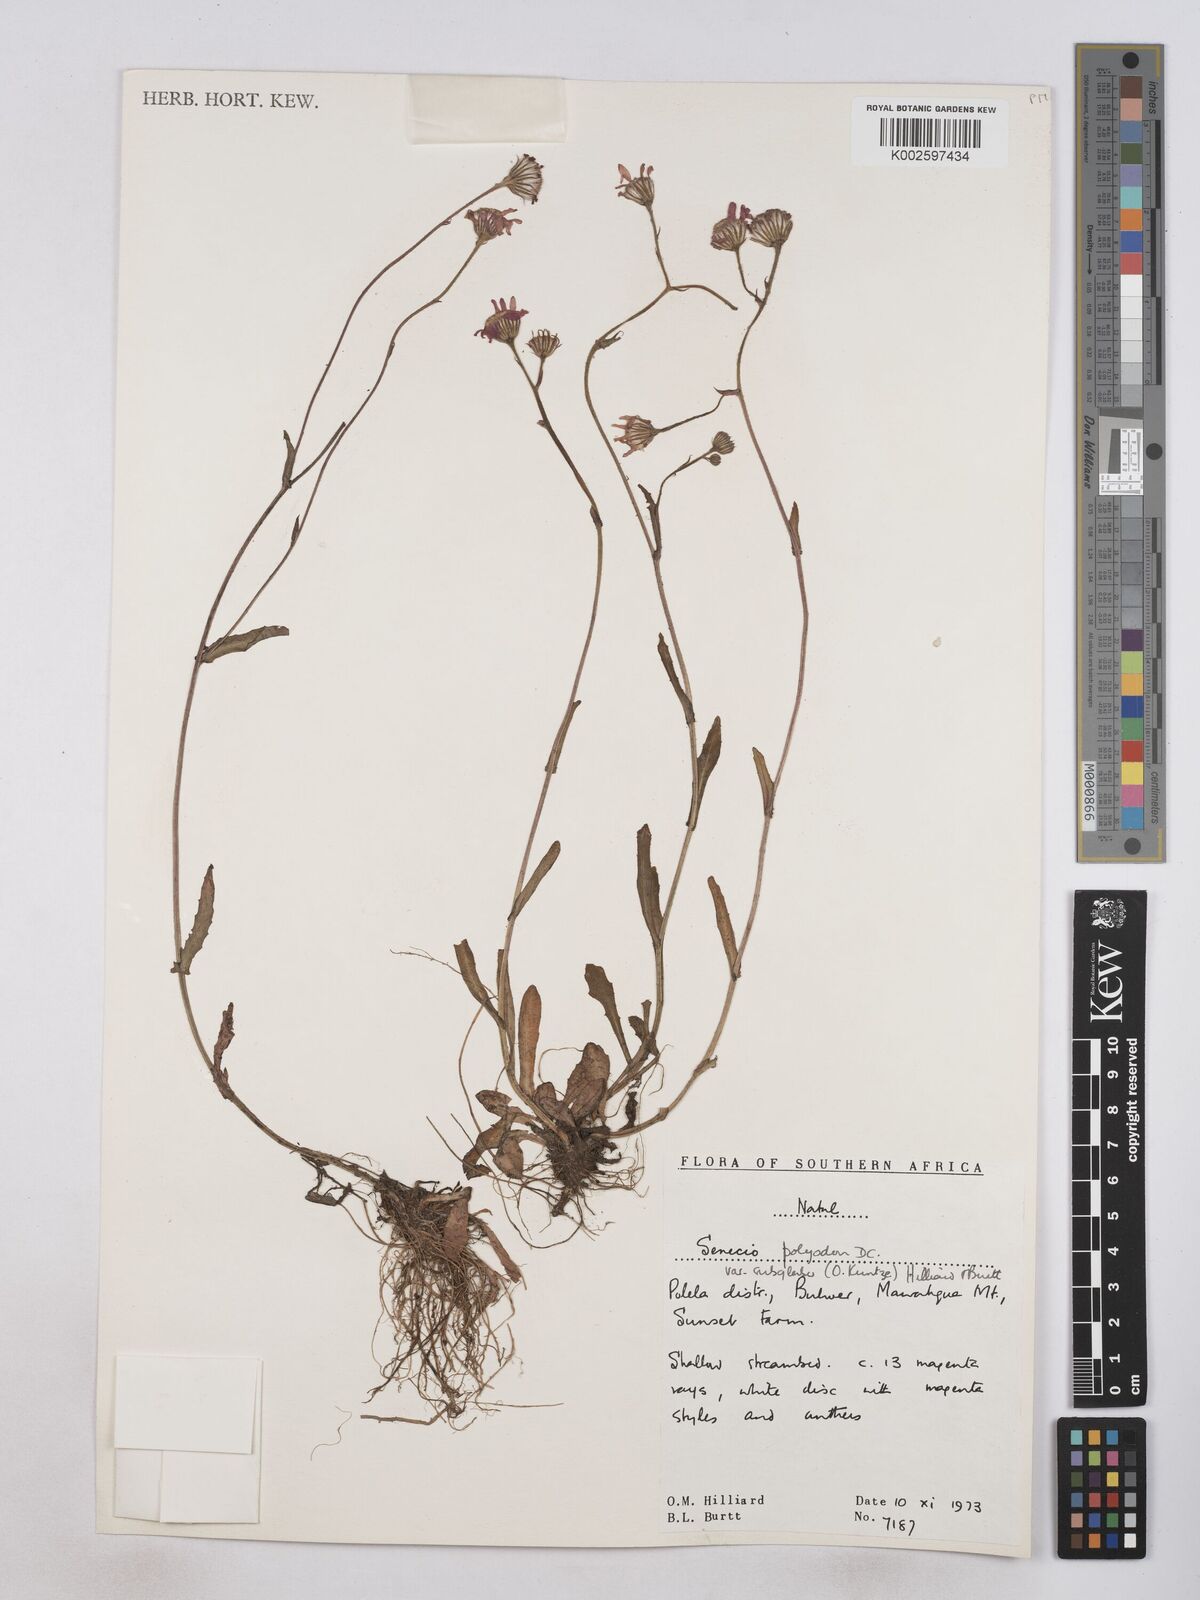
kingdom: Plantae
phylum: Tracheophyta
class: Magnoliopsida
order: Asterales
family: Asteraceae
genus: Senecio
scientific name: Senecio polyodon
